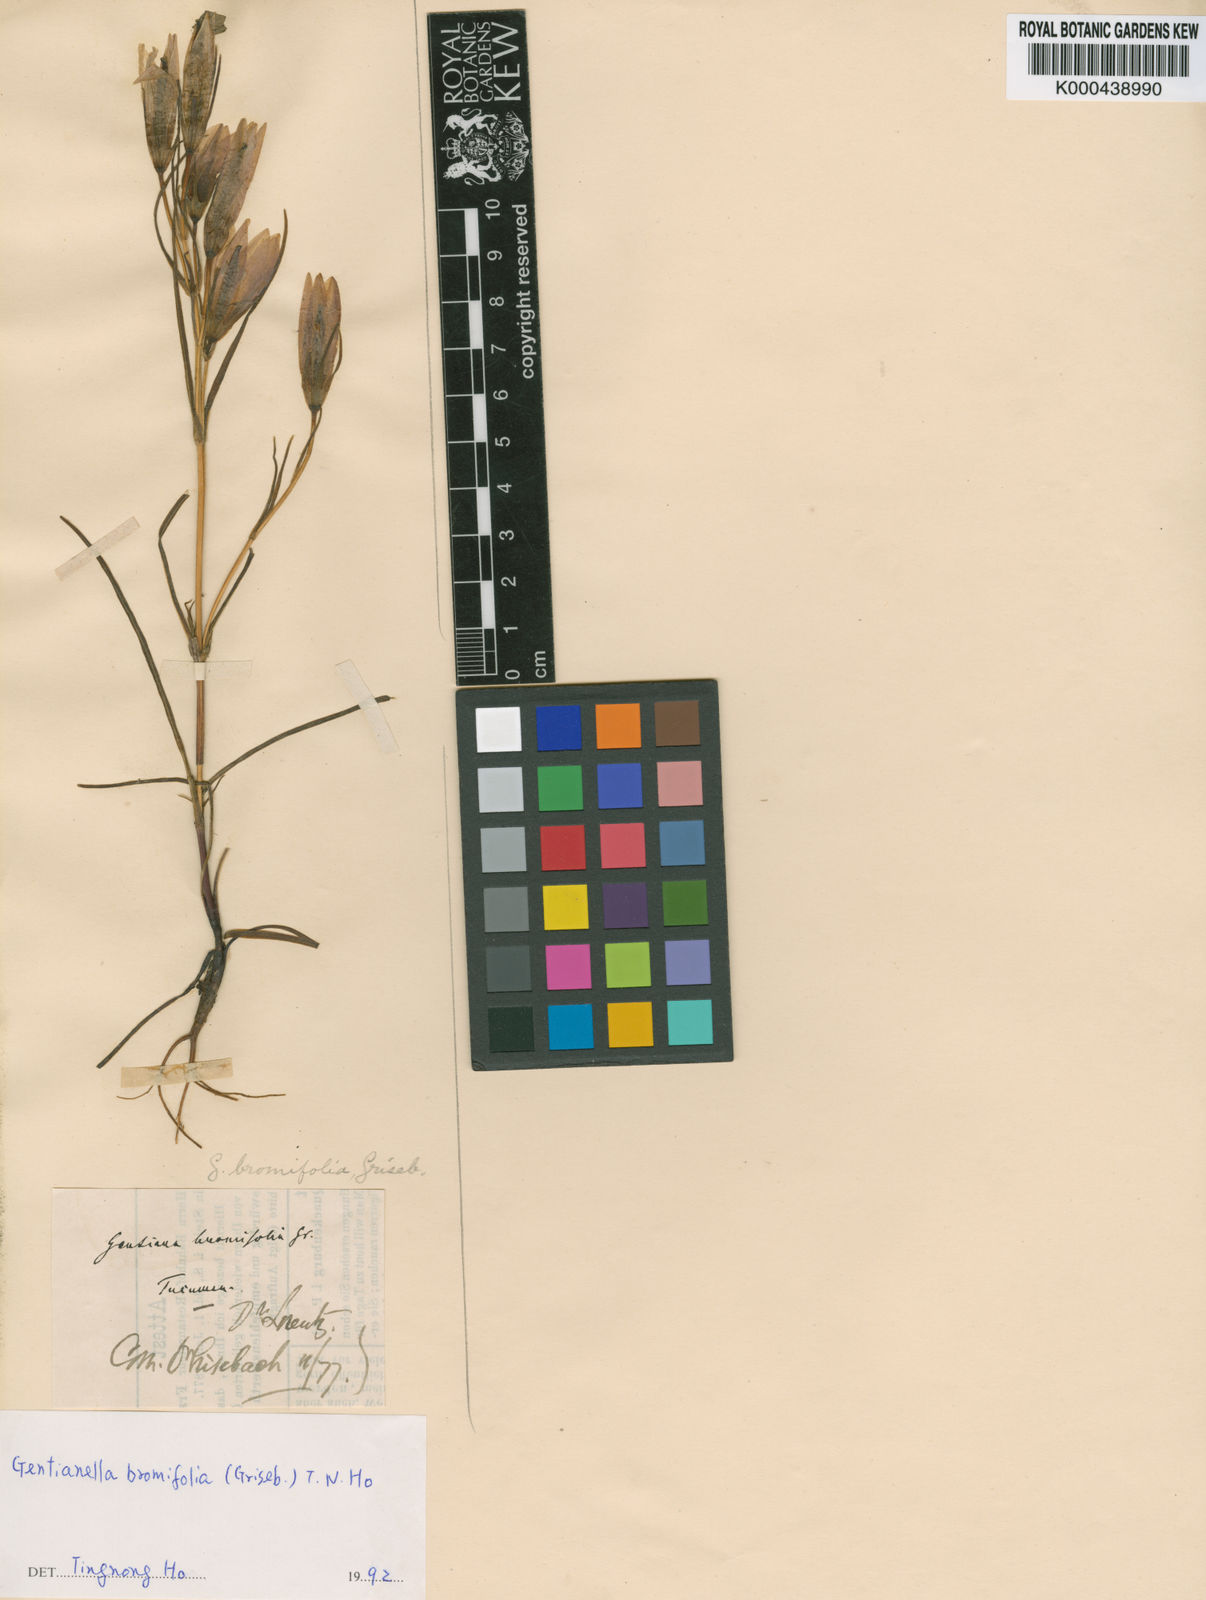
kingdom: Plantae
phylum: Tracheophyta
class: Magnoliopsida
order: Gentianales
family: Gentianaceae
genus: Gentianella
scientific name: Gentianella bromifolia
